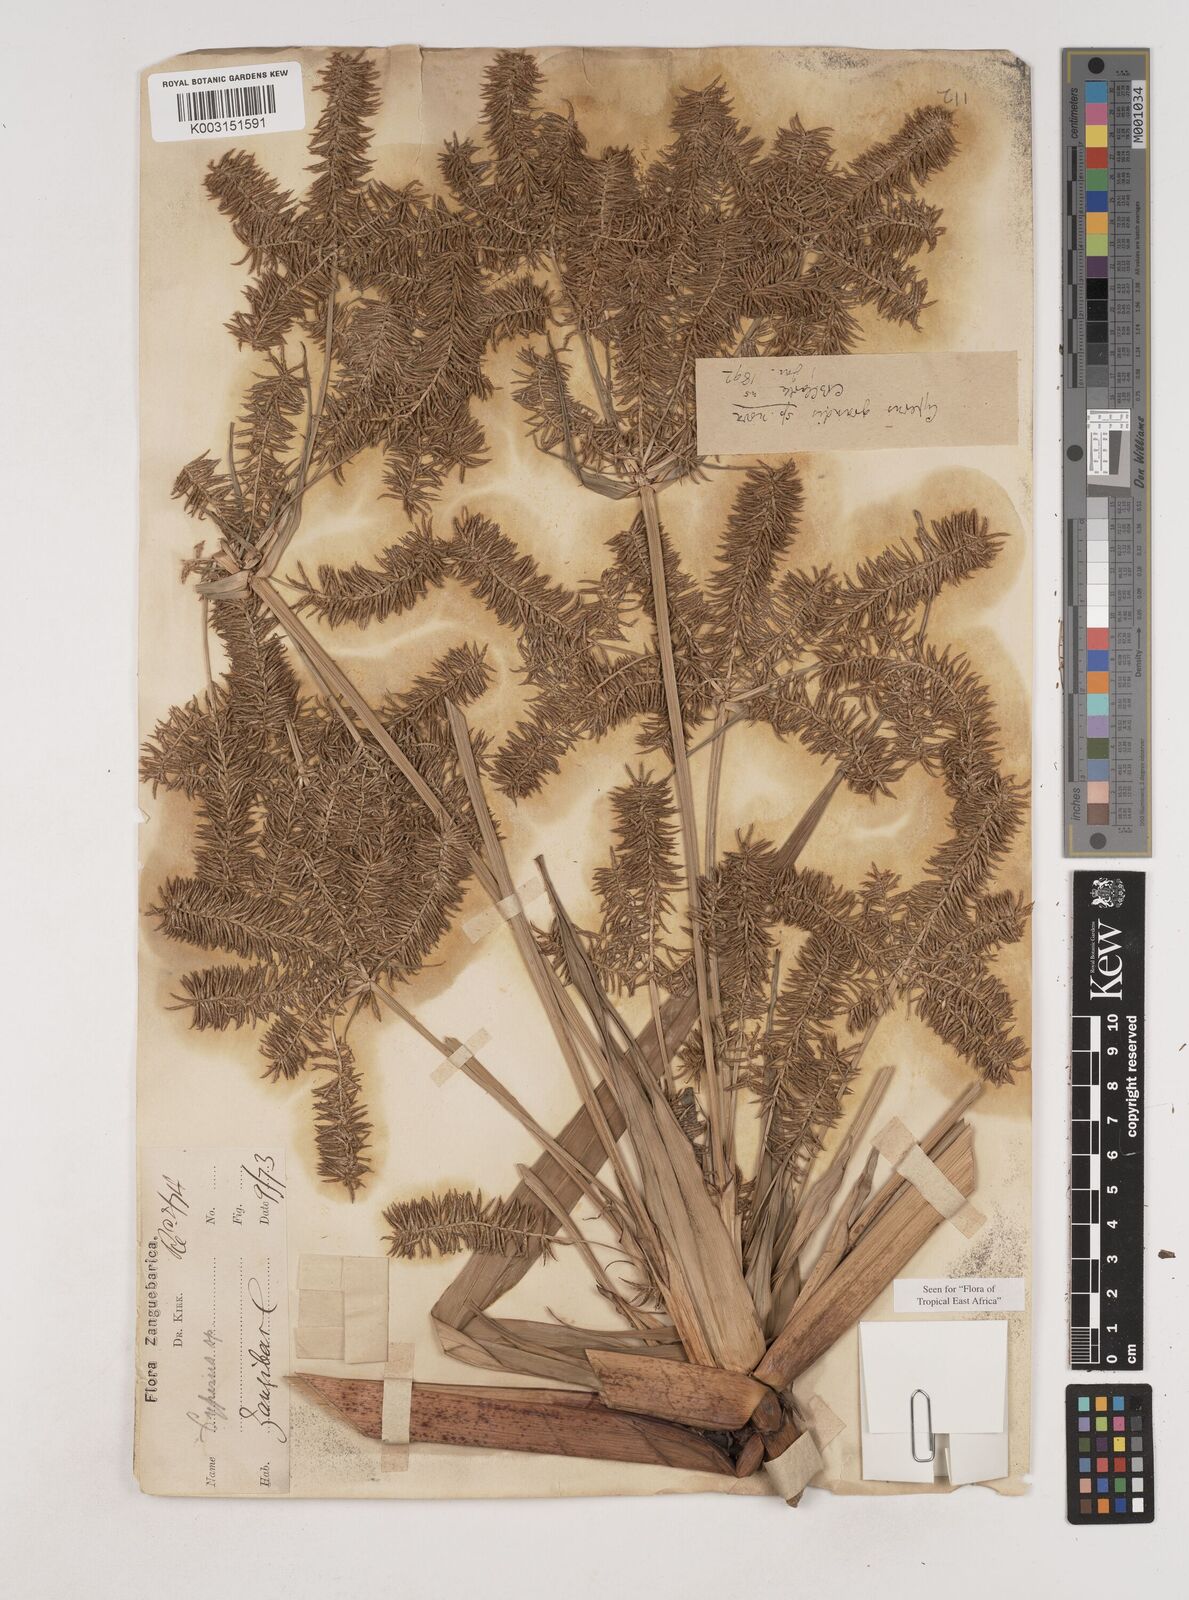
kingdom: Plantae
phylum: Tracheophyta
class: Liliopsida
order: Poales
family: Cyperaceae
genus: Cyperus
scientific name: Cyperus grandis
